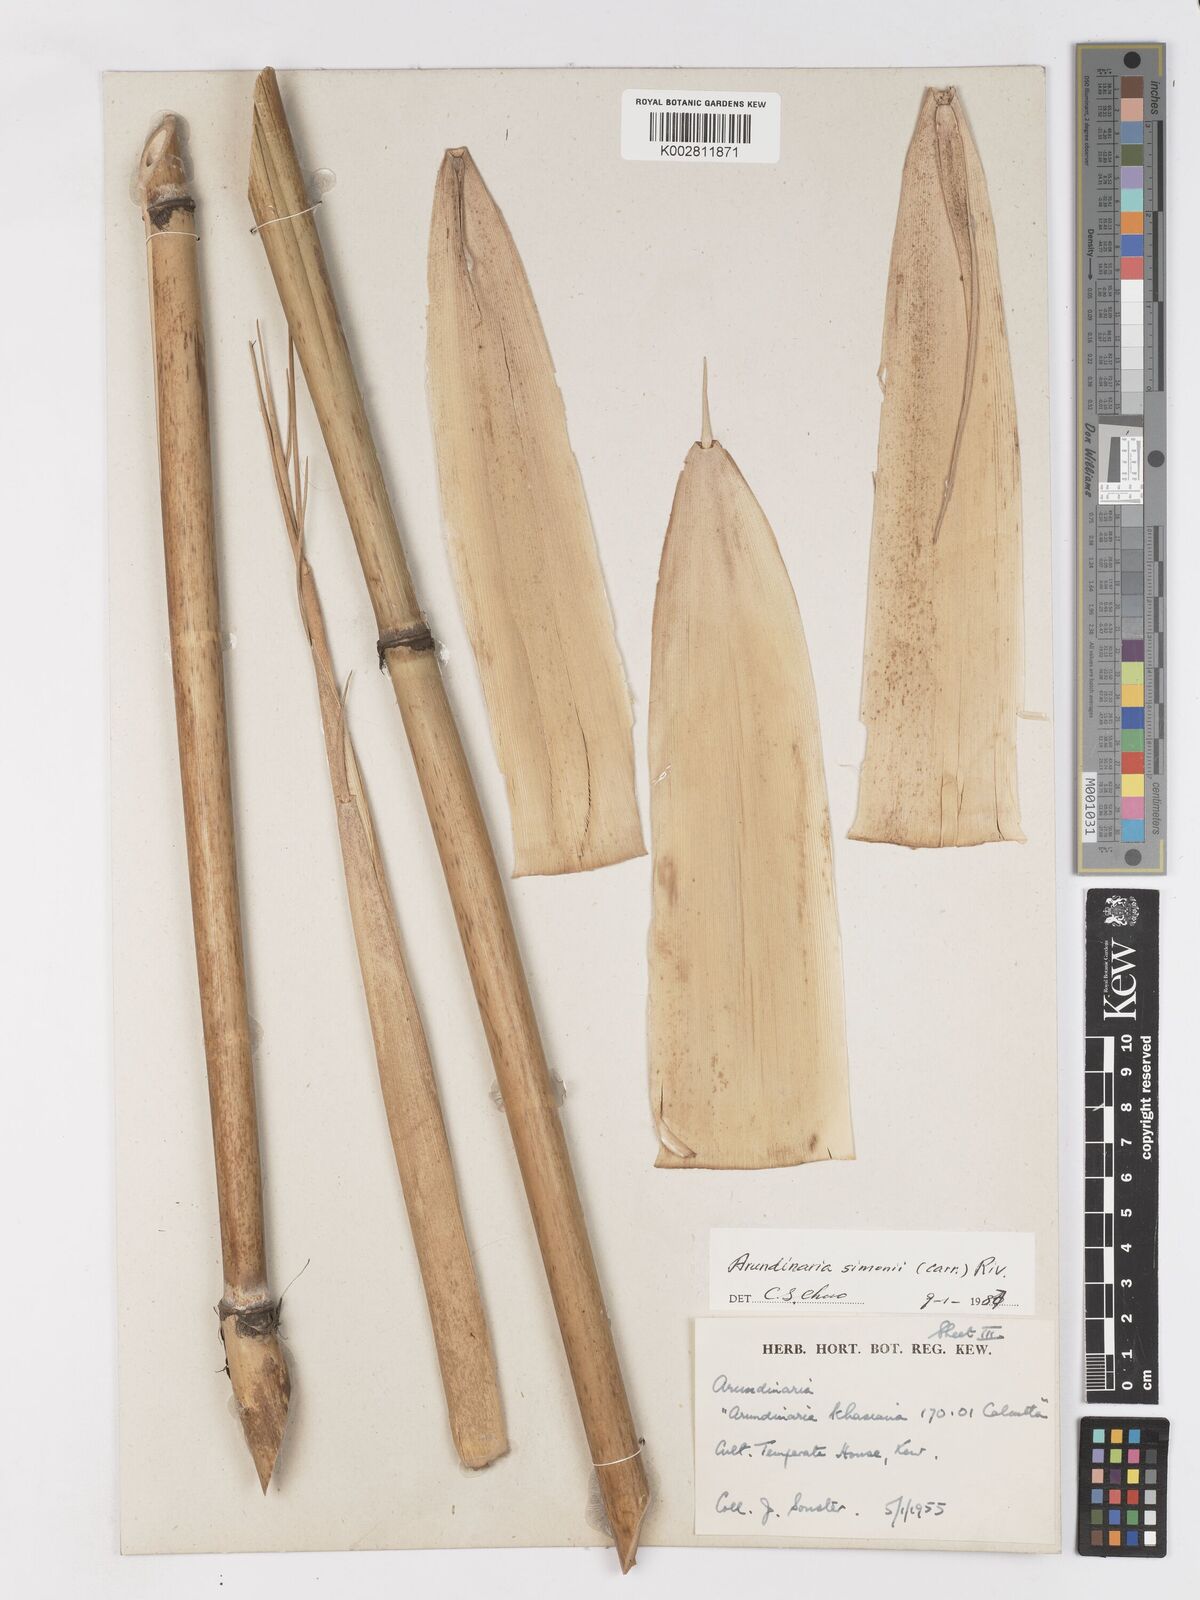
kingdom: Plantae
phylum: Tracheophyta
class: Liliopsida
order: Poales
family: Poaceae
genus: Pleioblastus
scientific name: Pleioblastus simonii
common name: Simon bamboo
